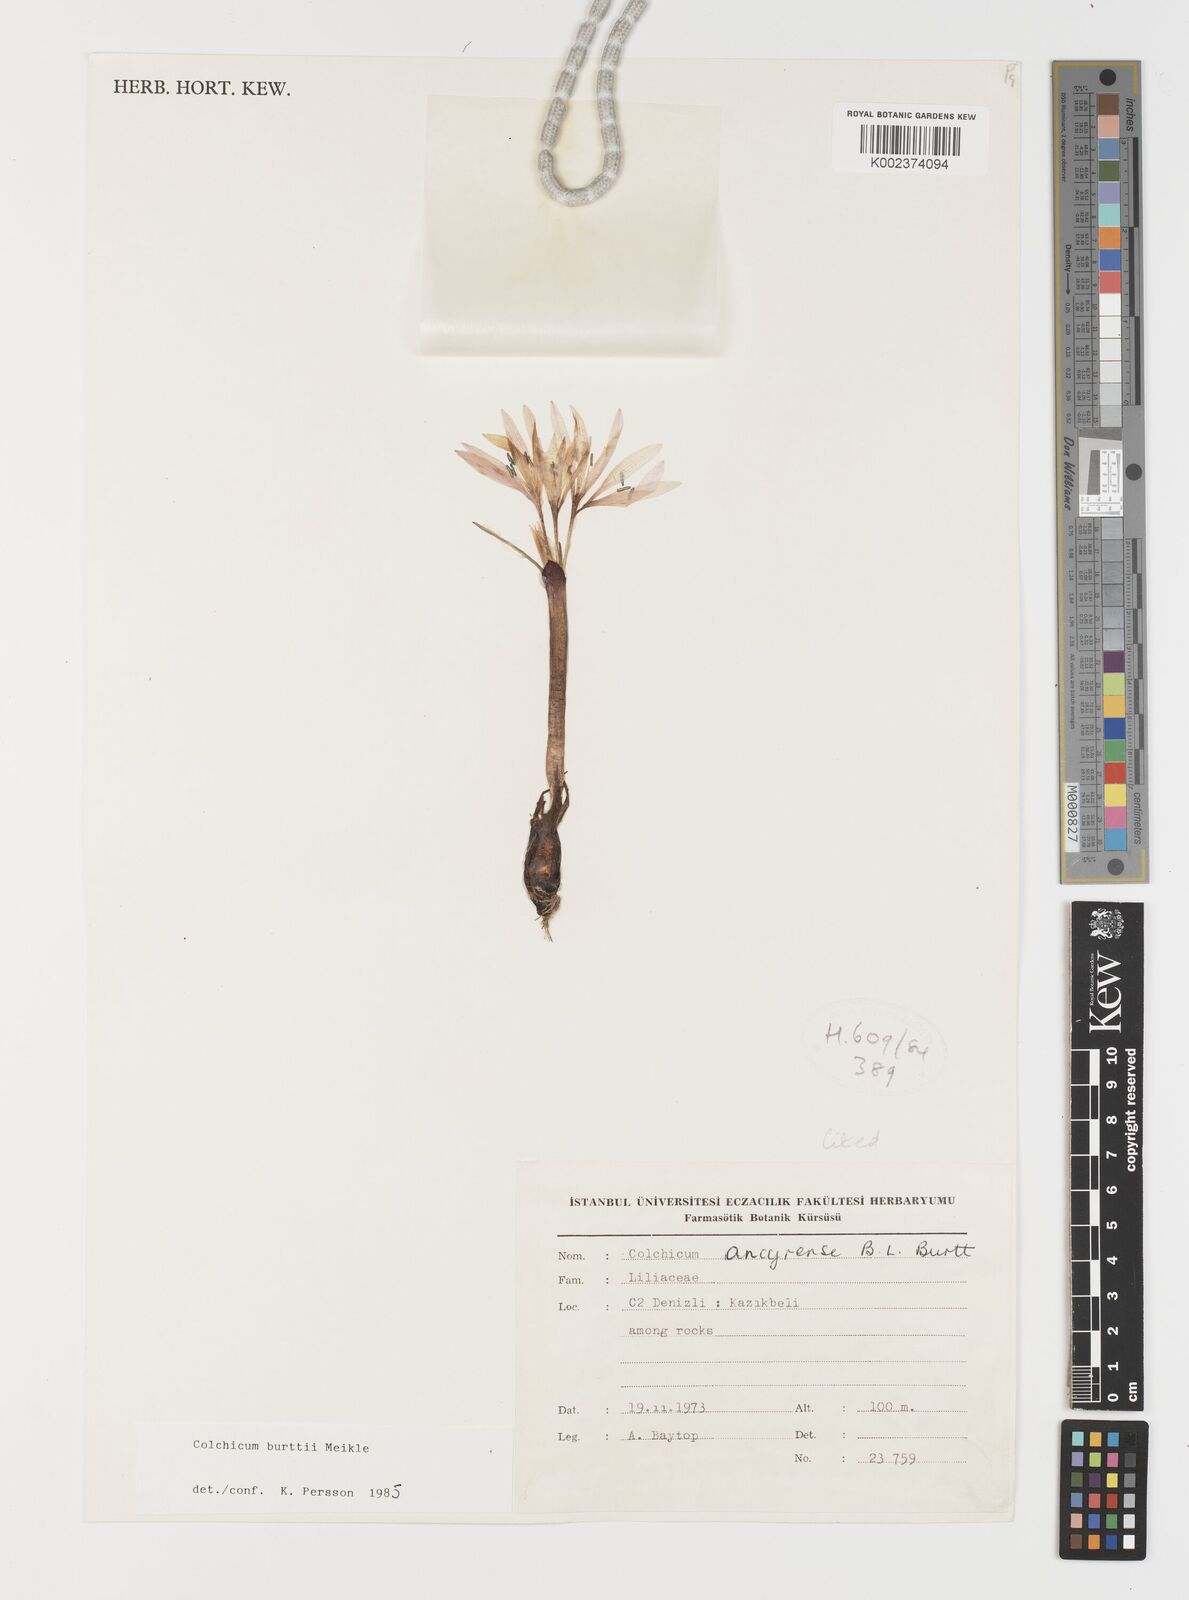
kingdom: Plantae
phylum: Tracheophyta
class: Liliopsida
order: Liliales
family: Colchicaceae
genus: Colchicum
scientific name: Colchicum burttii
